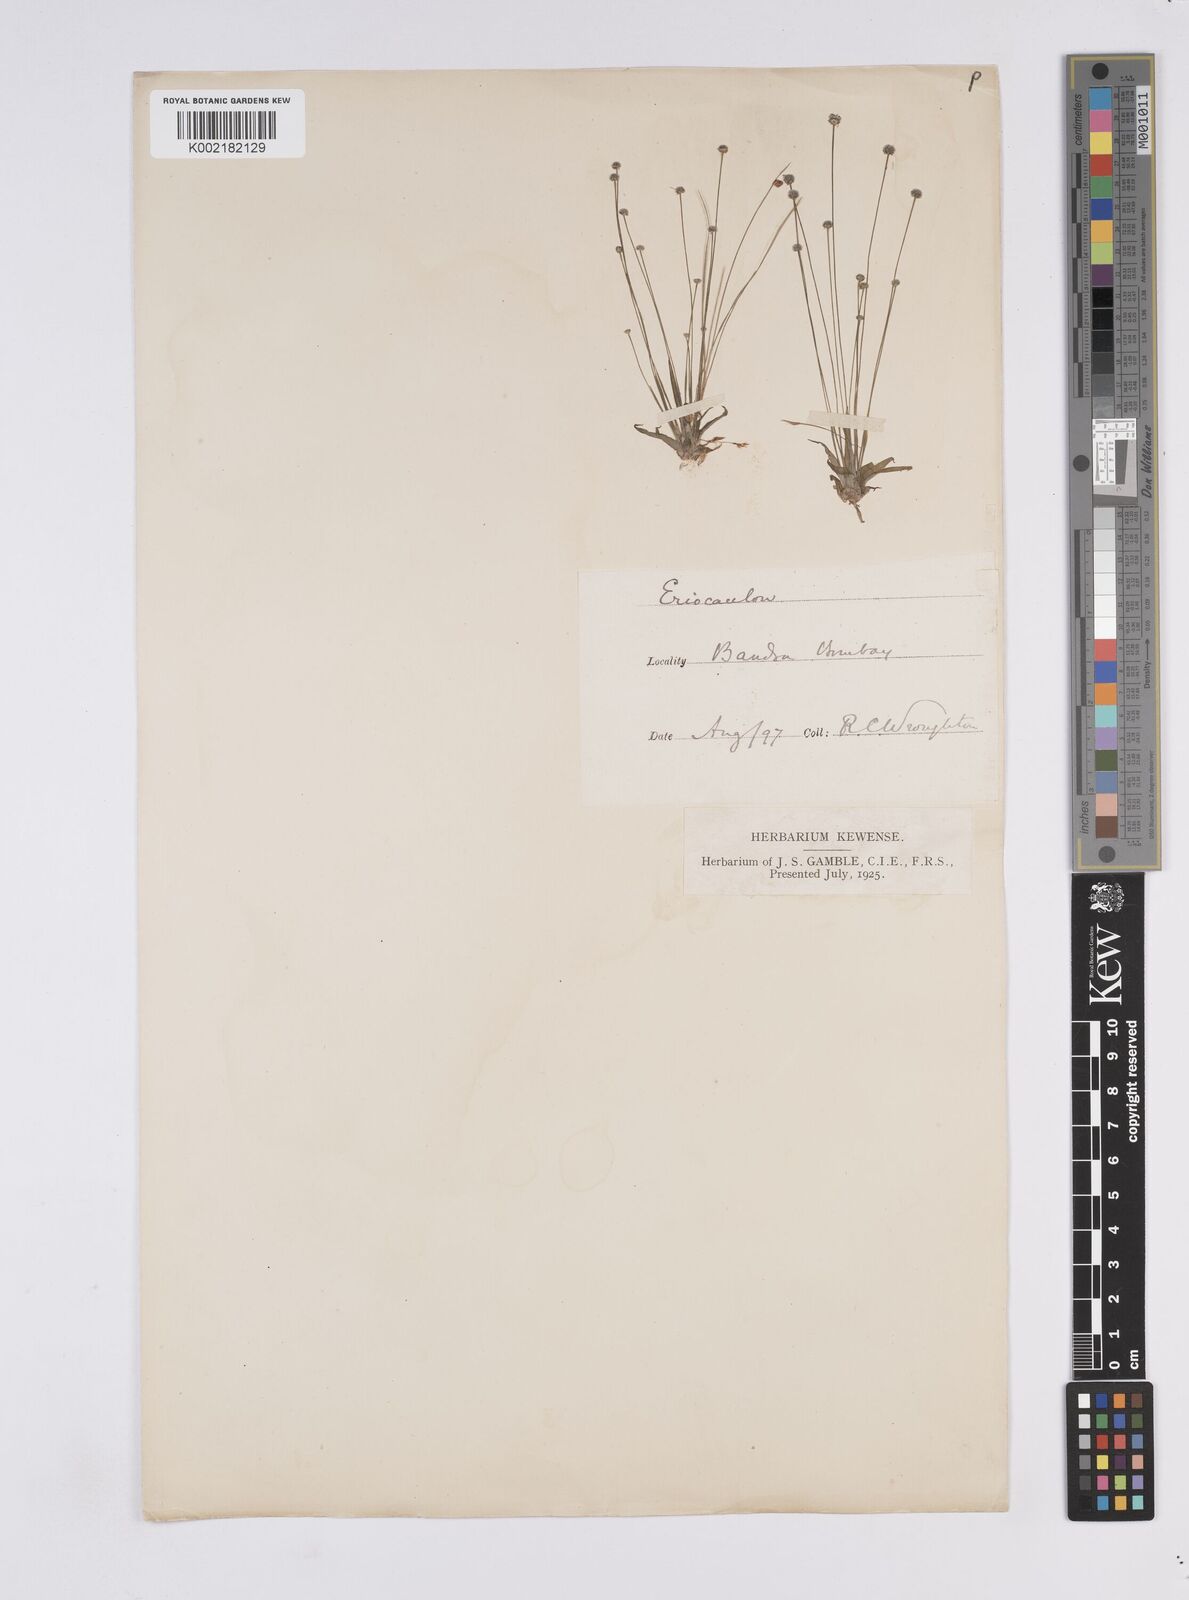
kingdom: Plantae
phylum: Tracheophyta
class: Liliopsida
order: Poales
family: Eriocaulaceae
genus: Eriocaulon
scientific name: Eriocaulon
